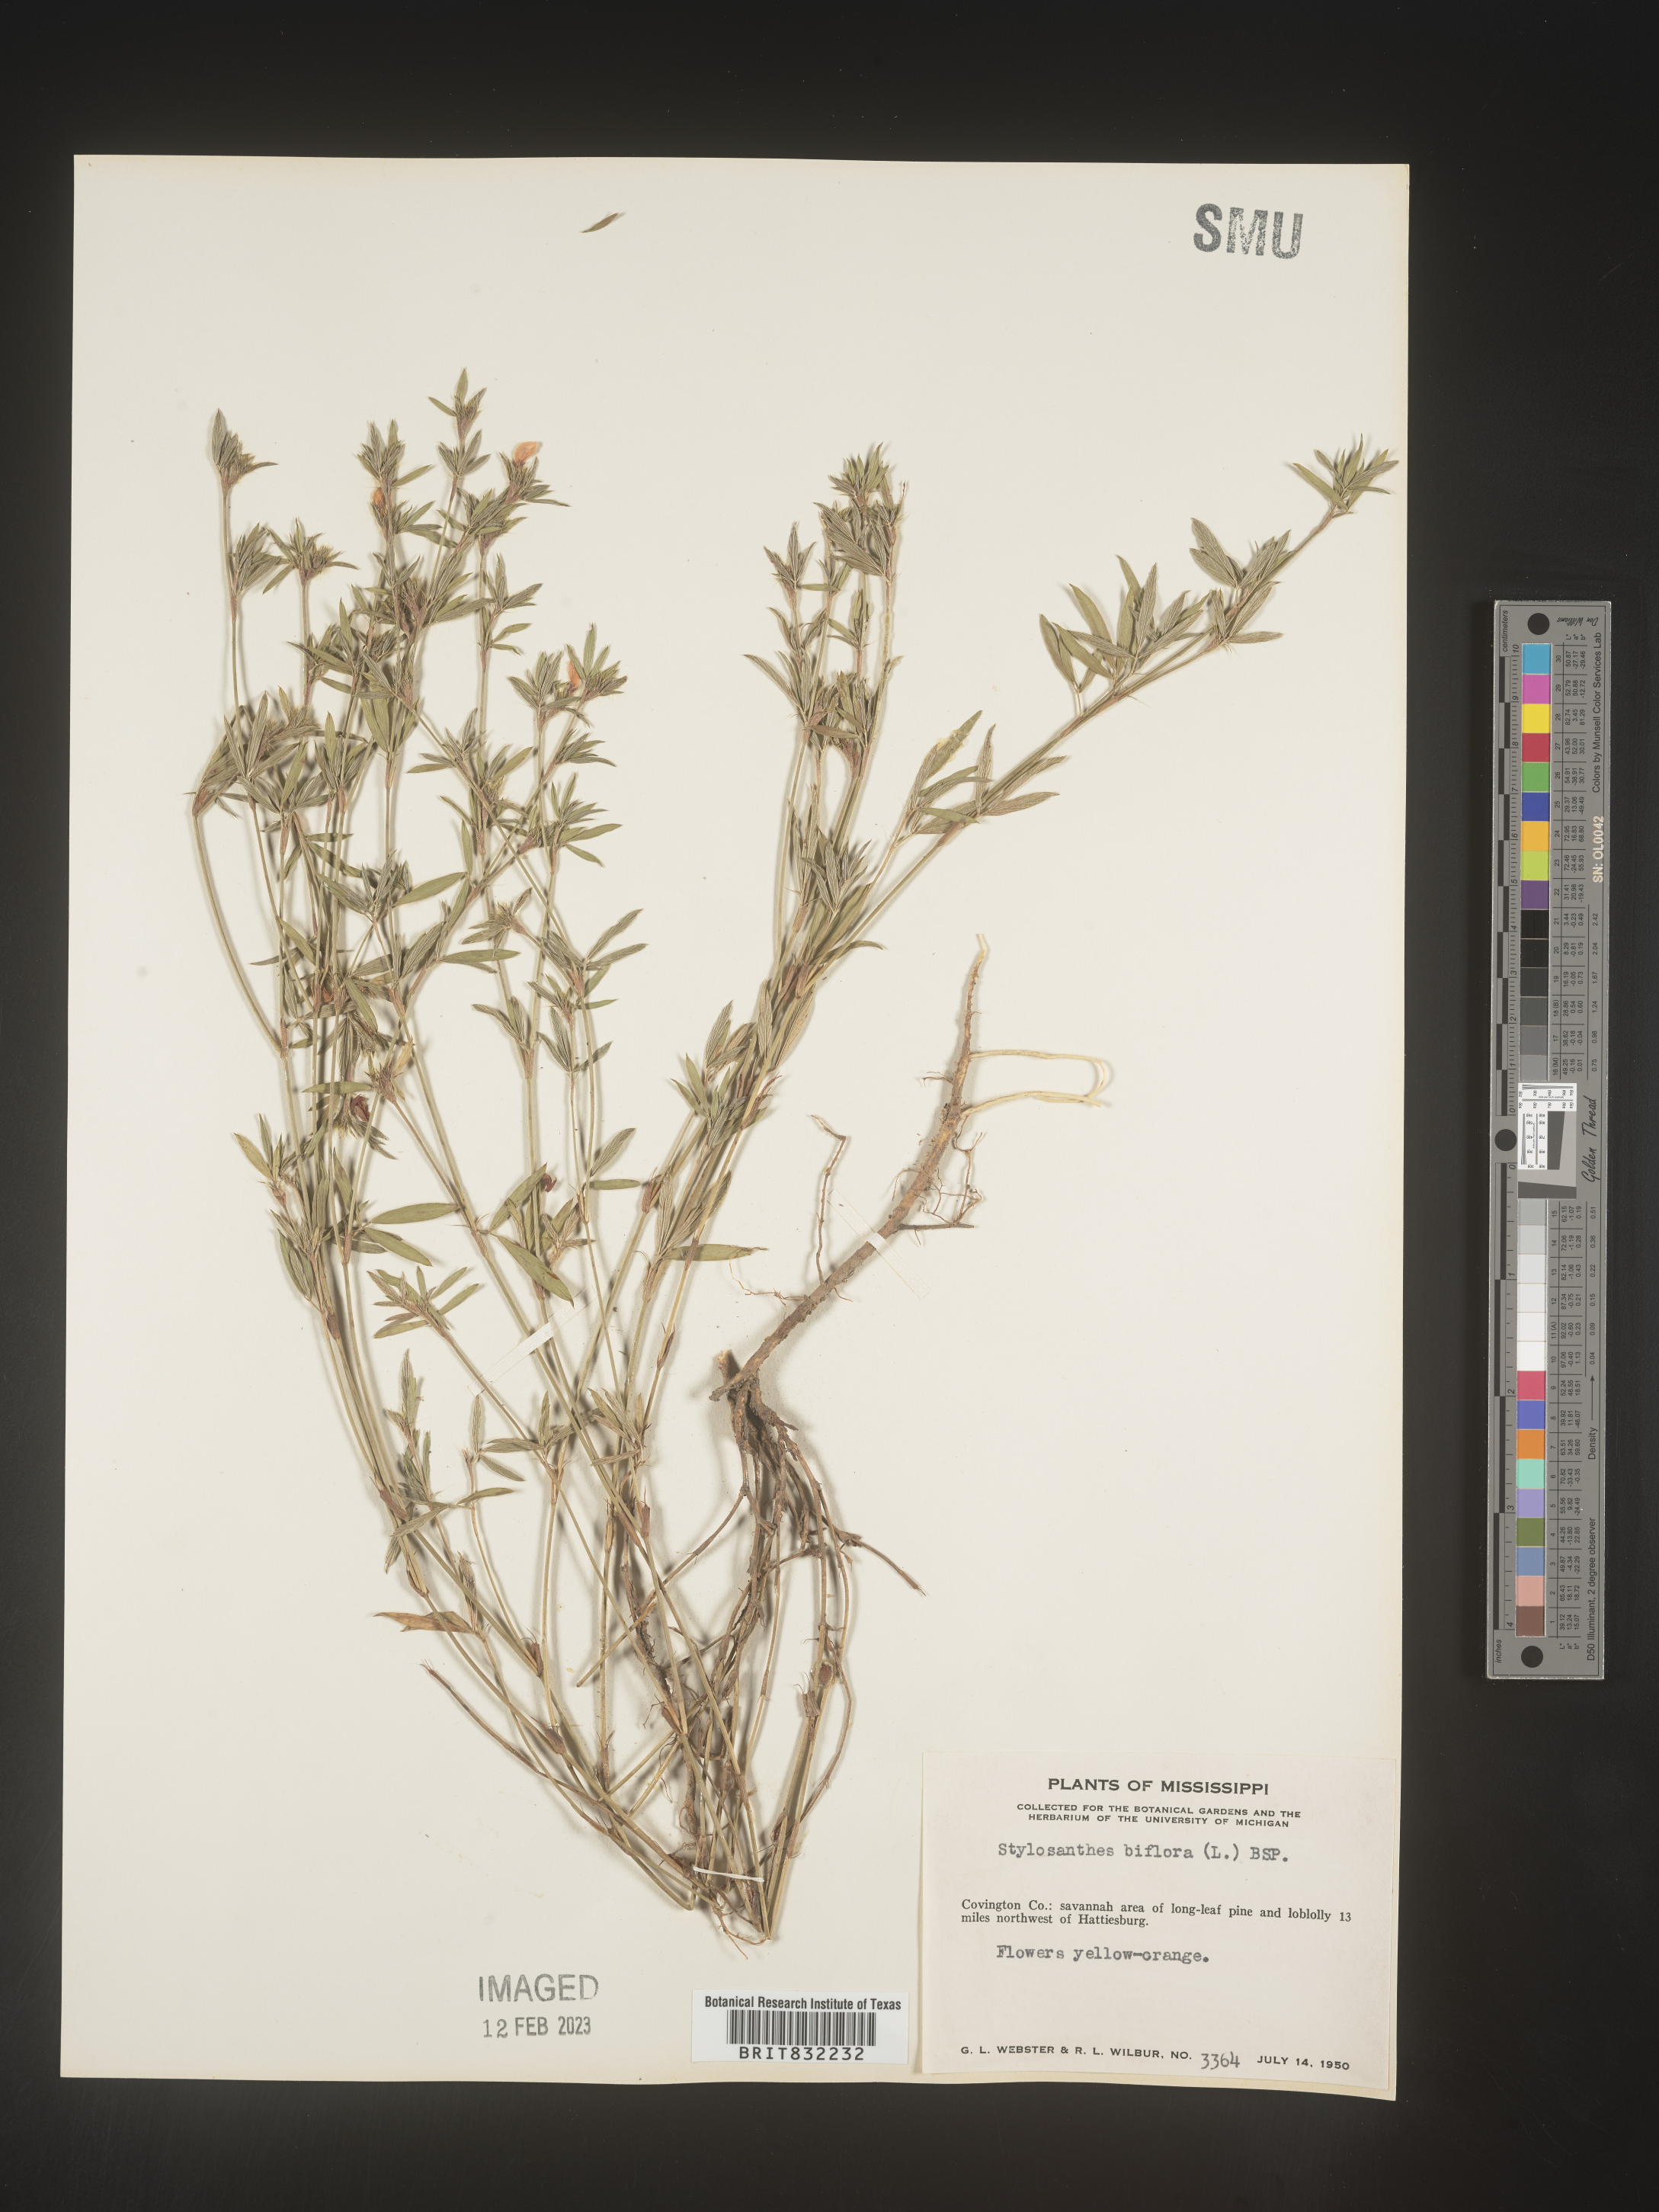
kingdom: Plantae
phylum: Tracheophyta
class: Magnoliopsida
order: Fabales
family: Fabaceae
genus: Stylosanthes
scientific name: Stylosanthes biflora
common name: Two-flower pencil-flower
